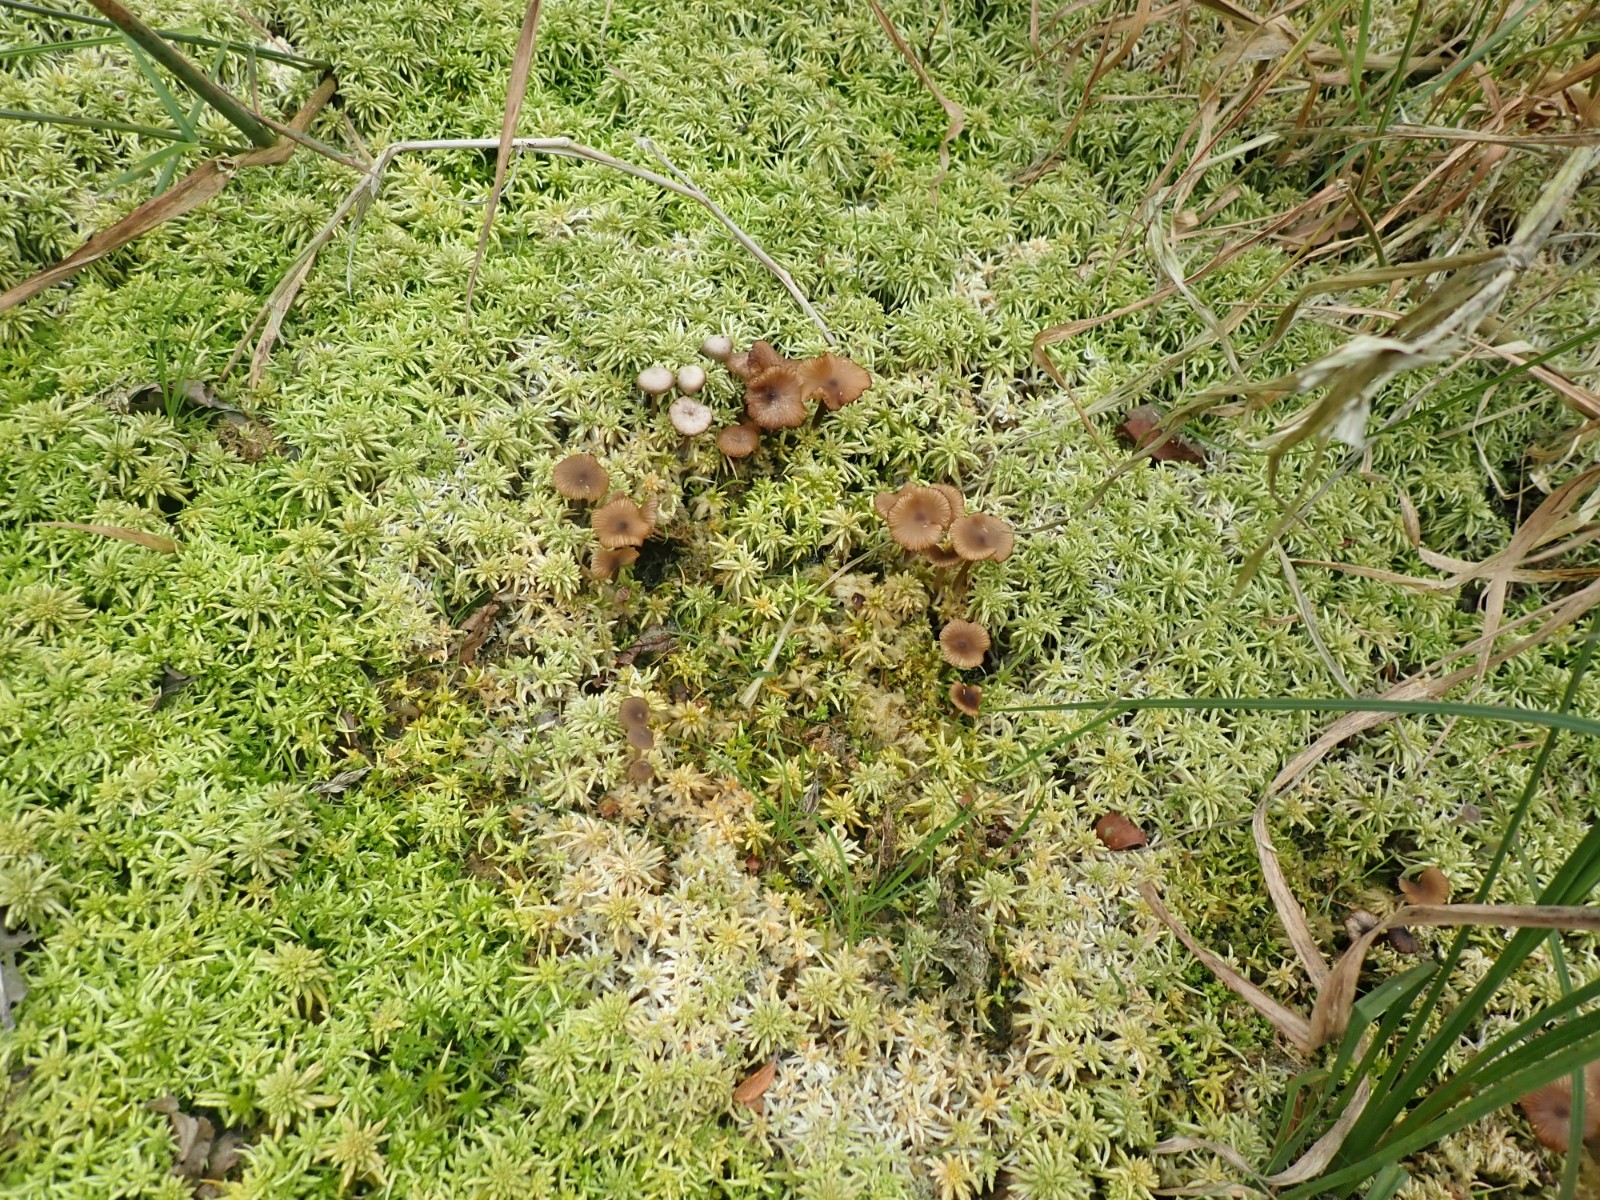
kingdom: Fungi
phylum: Basidiomycota
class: Agaricomycetes
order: Agaricales
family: Lyophyllaceae
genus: Sphagnurus
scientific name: Sphagnurus paluster
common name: tørvemos-gråblad
